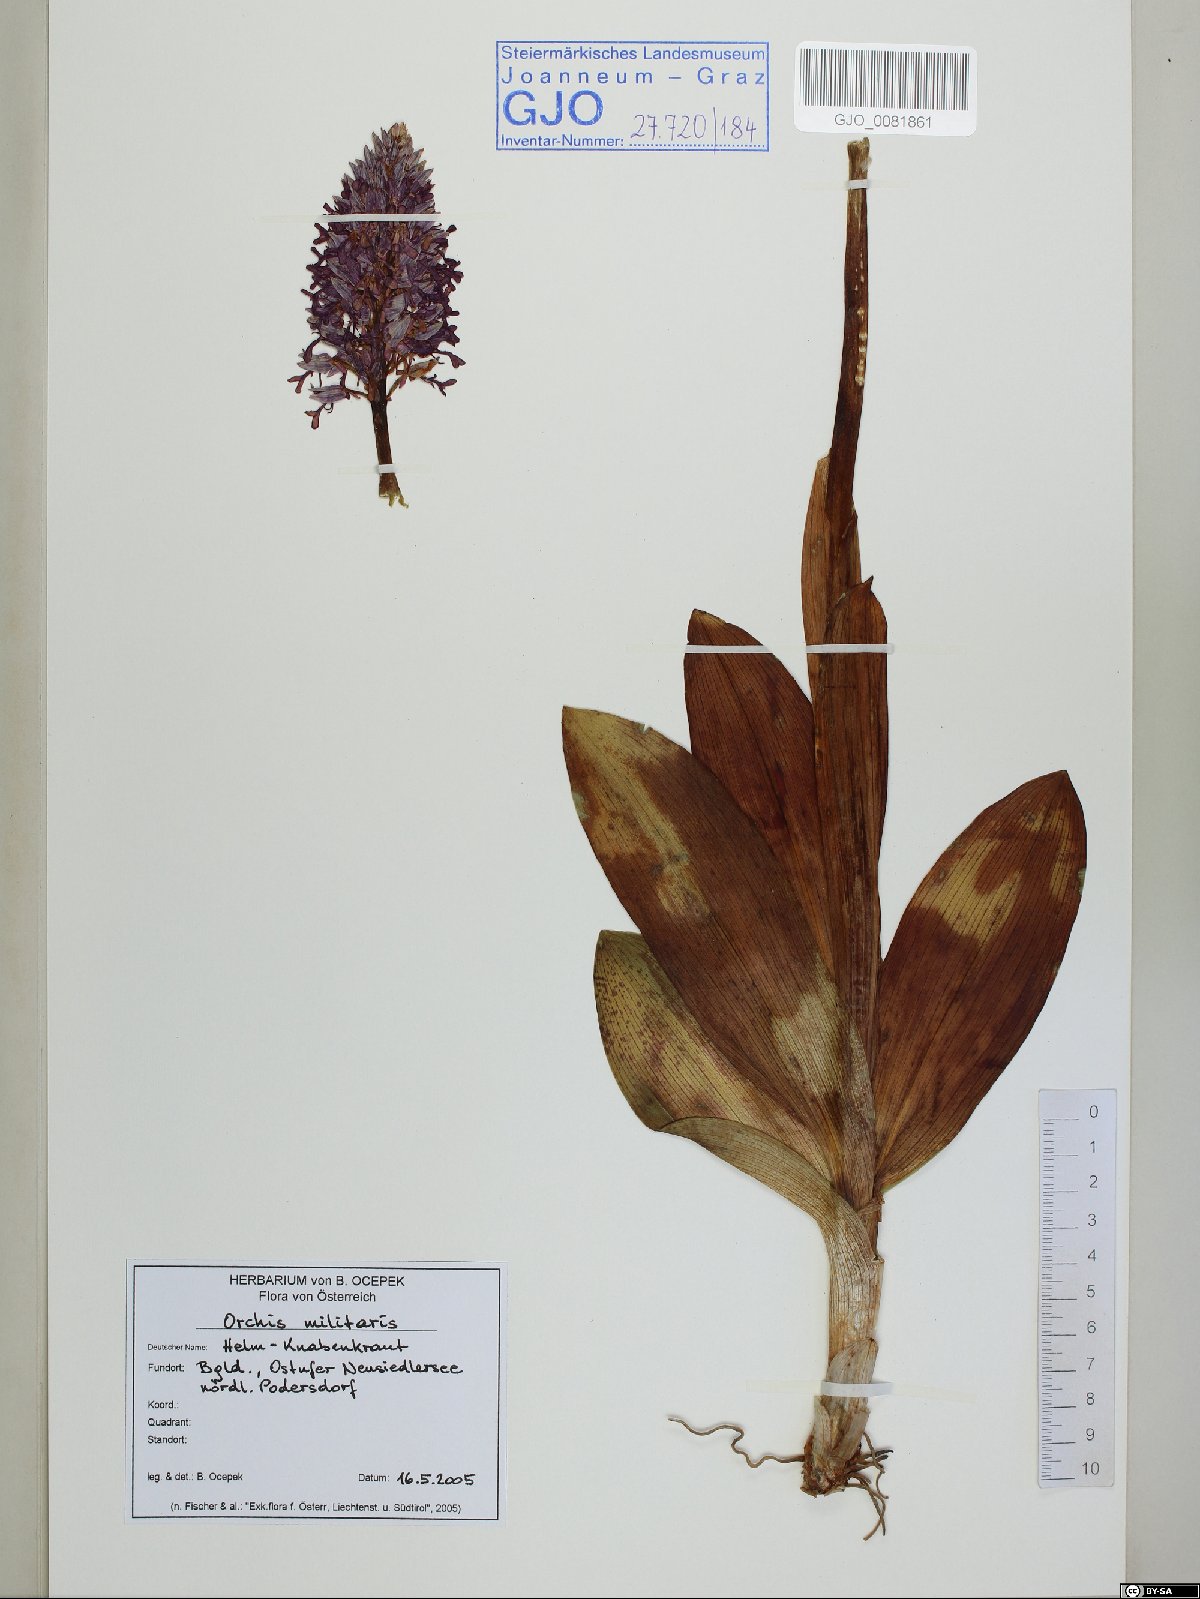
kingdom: Plantae
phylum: Tracheophyta
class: Liliopsida
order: Asparagales
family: Orchidaceae
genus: Orchis
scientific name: Orchis militaris
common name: Military orchid
